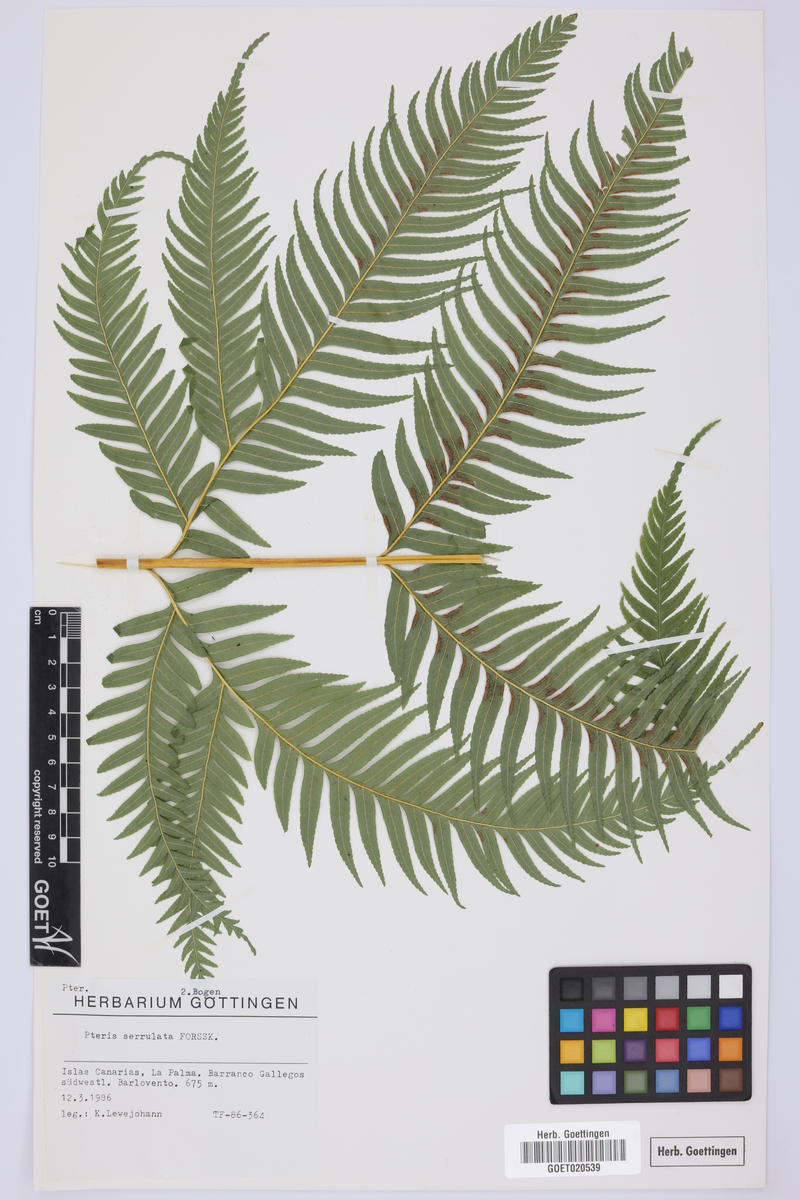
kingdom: Plantae
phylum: Tracheophyta
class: Polypodiopsida
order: Polypodiales
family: Pteridaceae
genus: Pteris
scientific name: Pteris dentata
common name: Toothed brake
